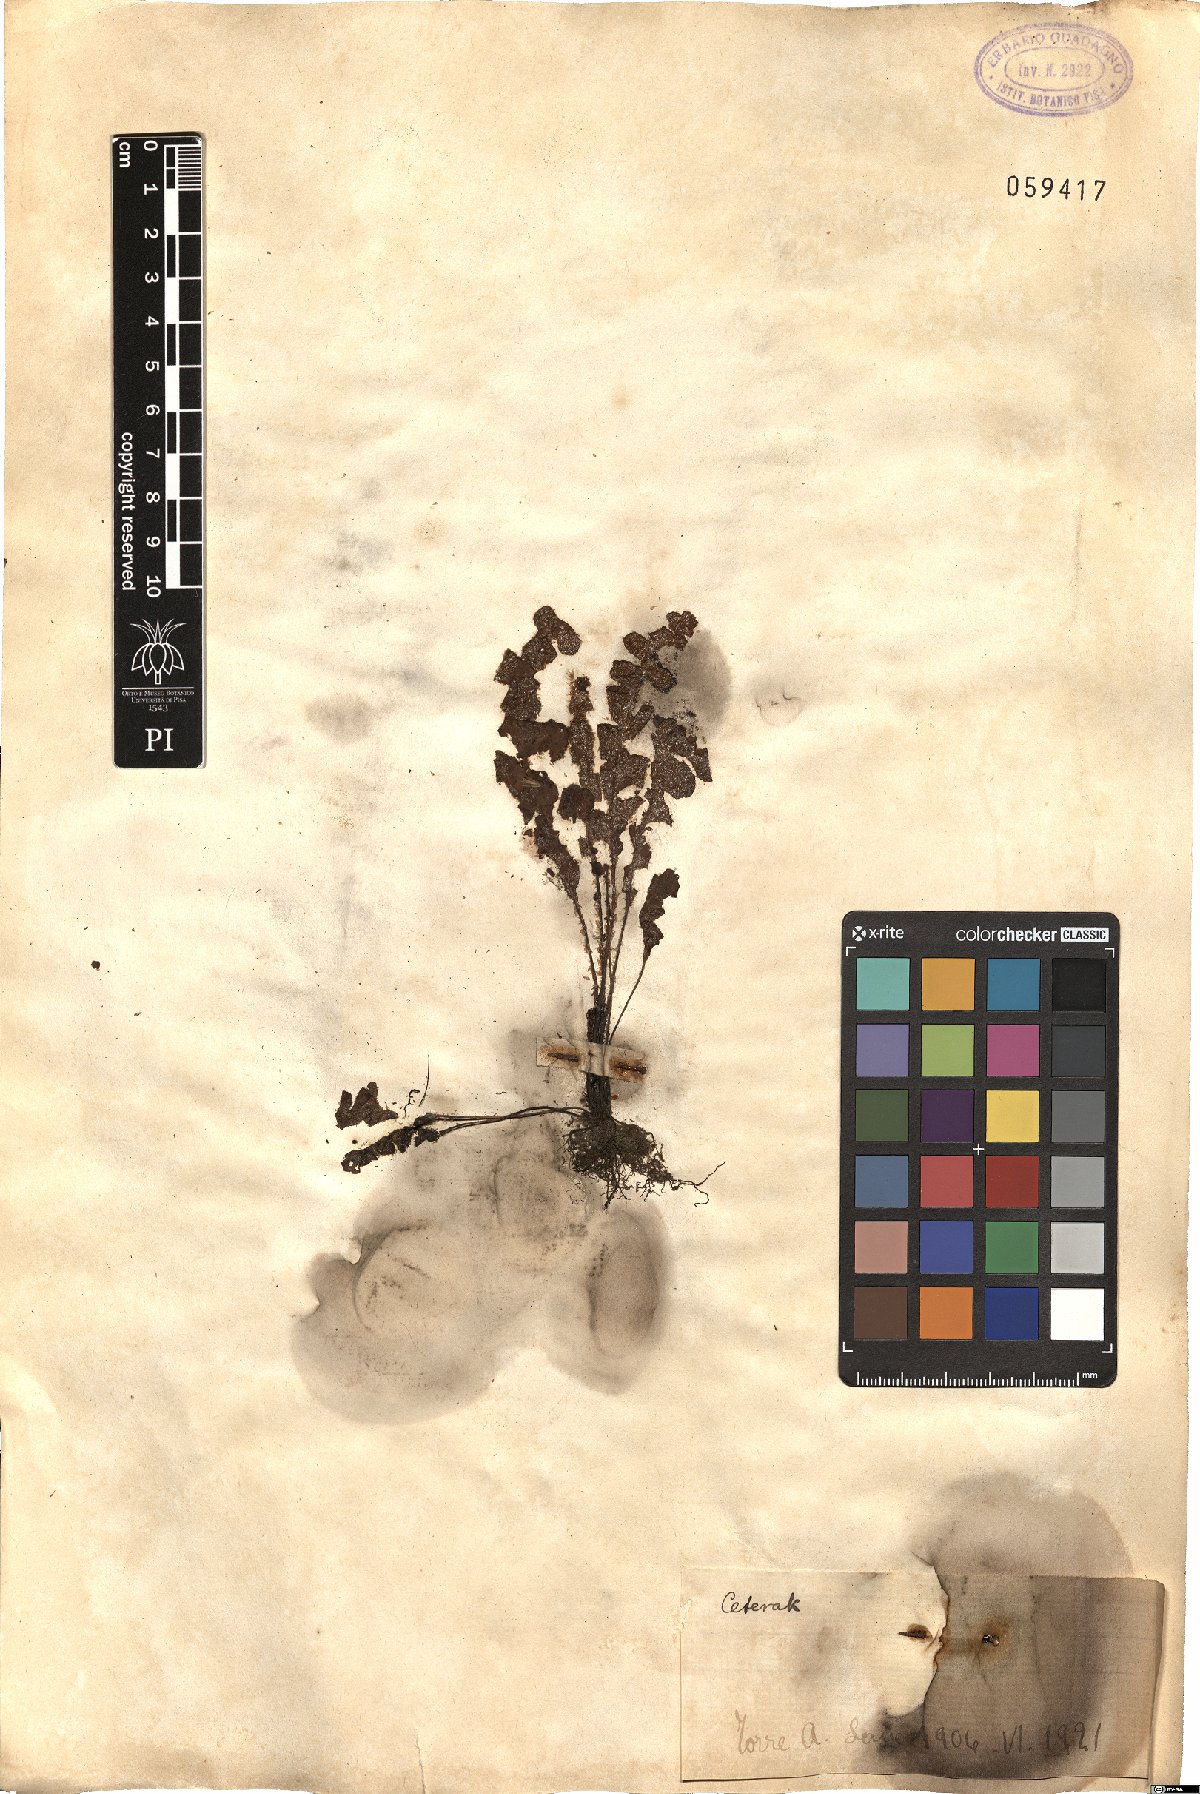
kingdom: Plantae
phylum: Tracheophyta
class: Polypodiopsida
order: Polypodiales
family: Aspleniaceae
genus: Ceterach
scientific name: Ceterach
